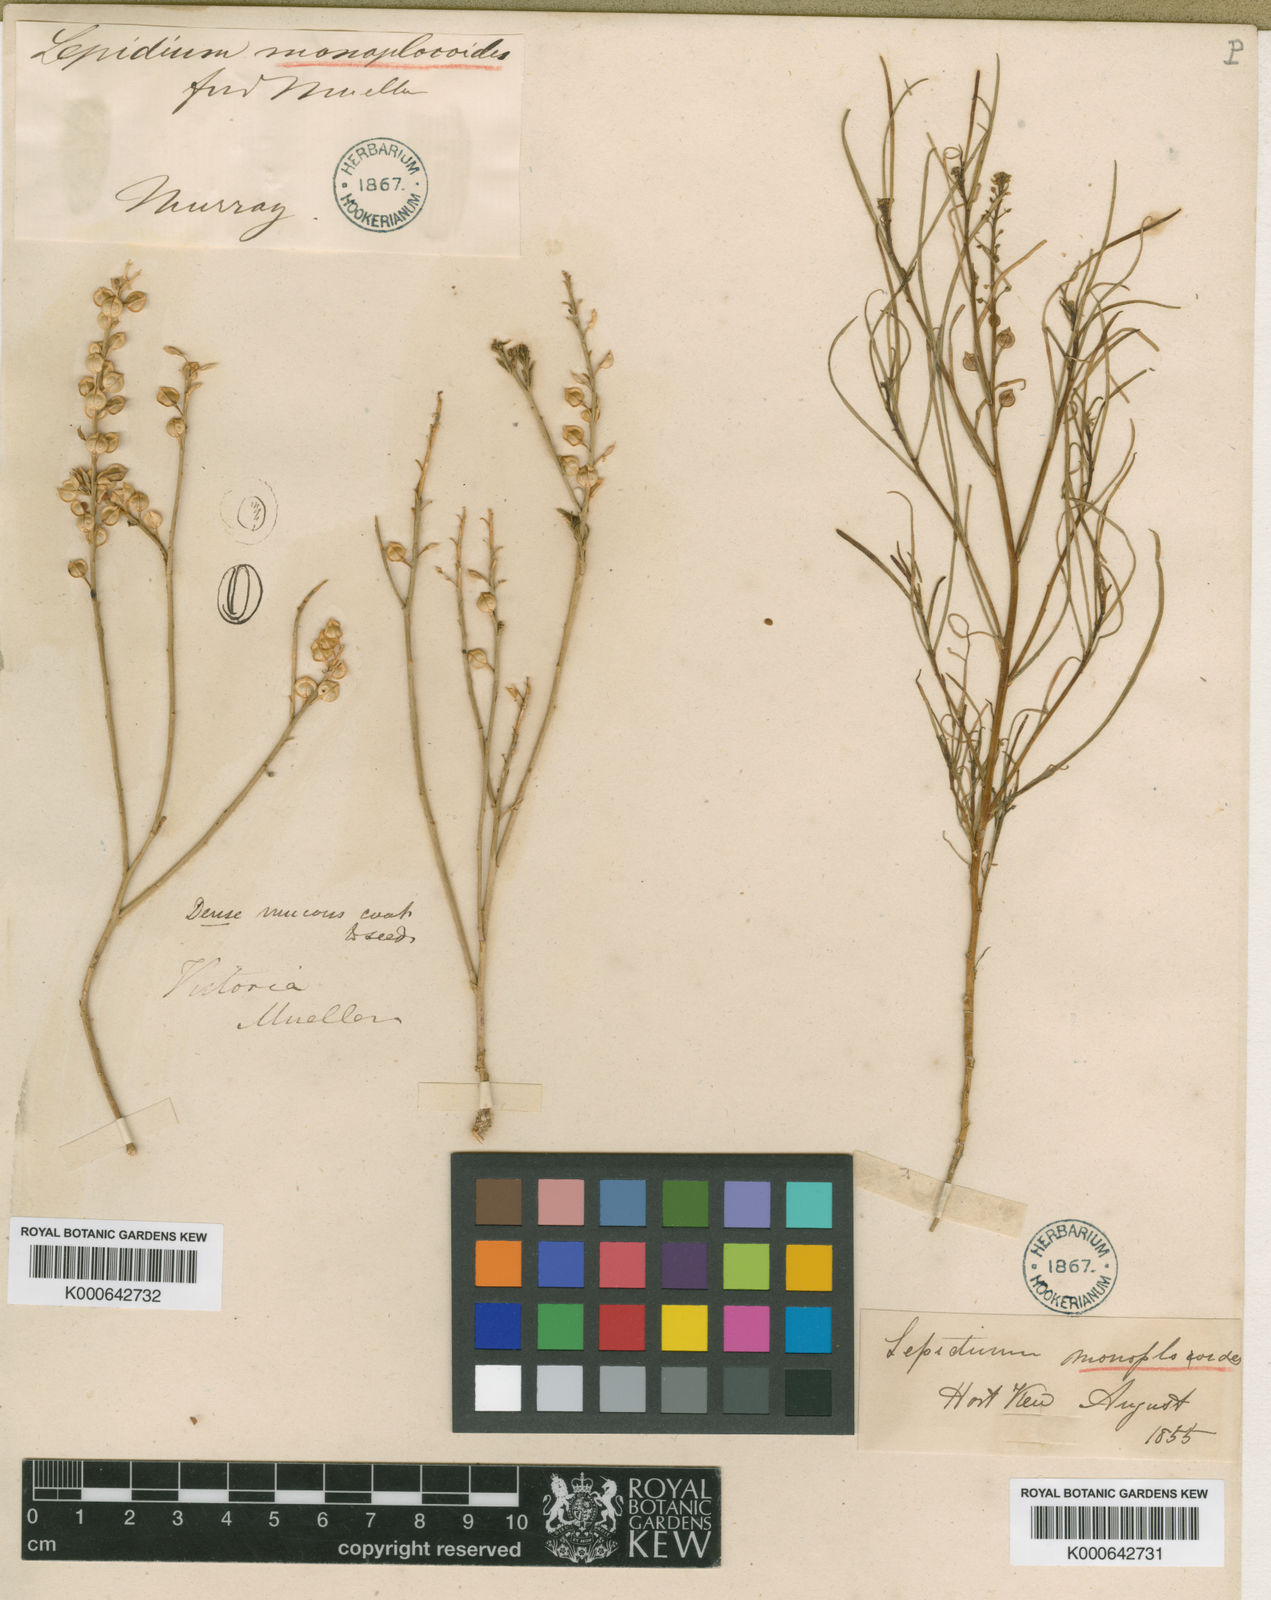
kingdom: Plantae
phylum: Tracheophyta
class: Magnoliopsida
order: Brassicales
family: Brassicaceae
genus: Lepidium
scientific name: Lepidium monoplocoides
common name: Winged pepperwort
